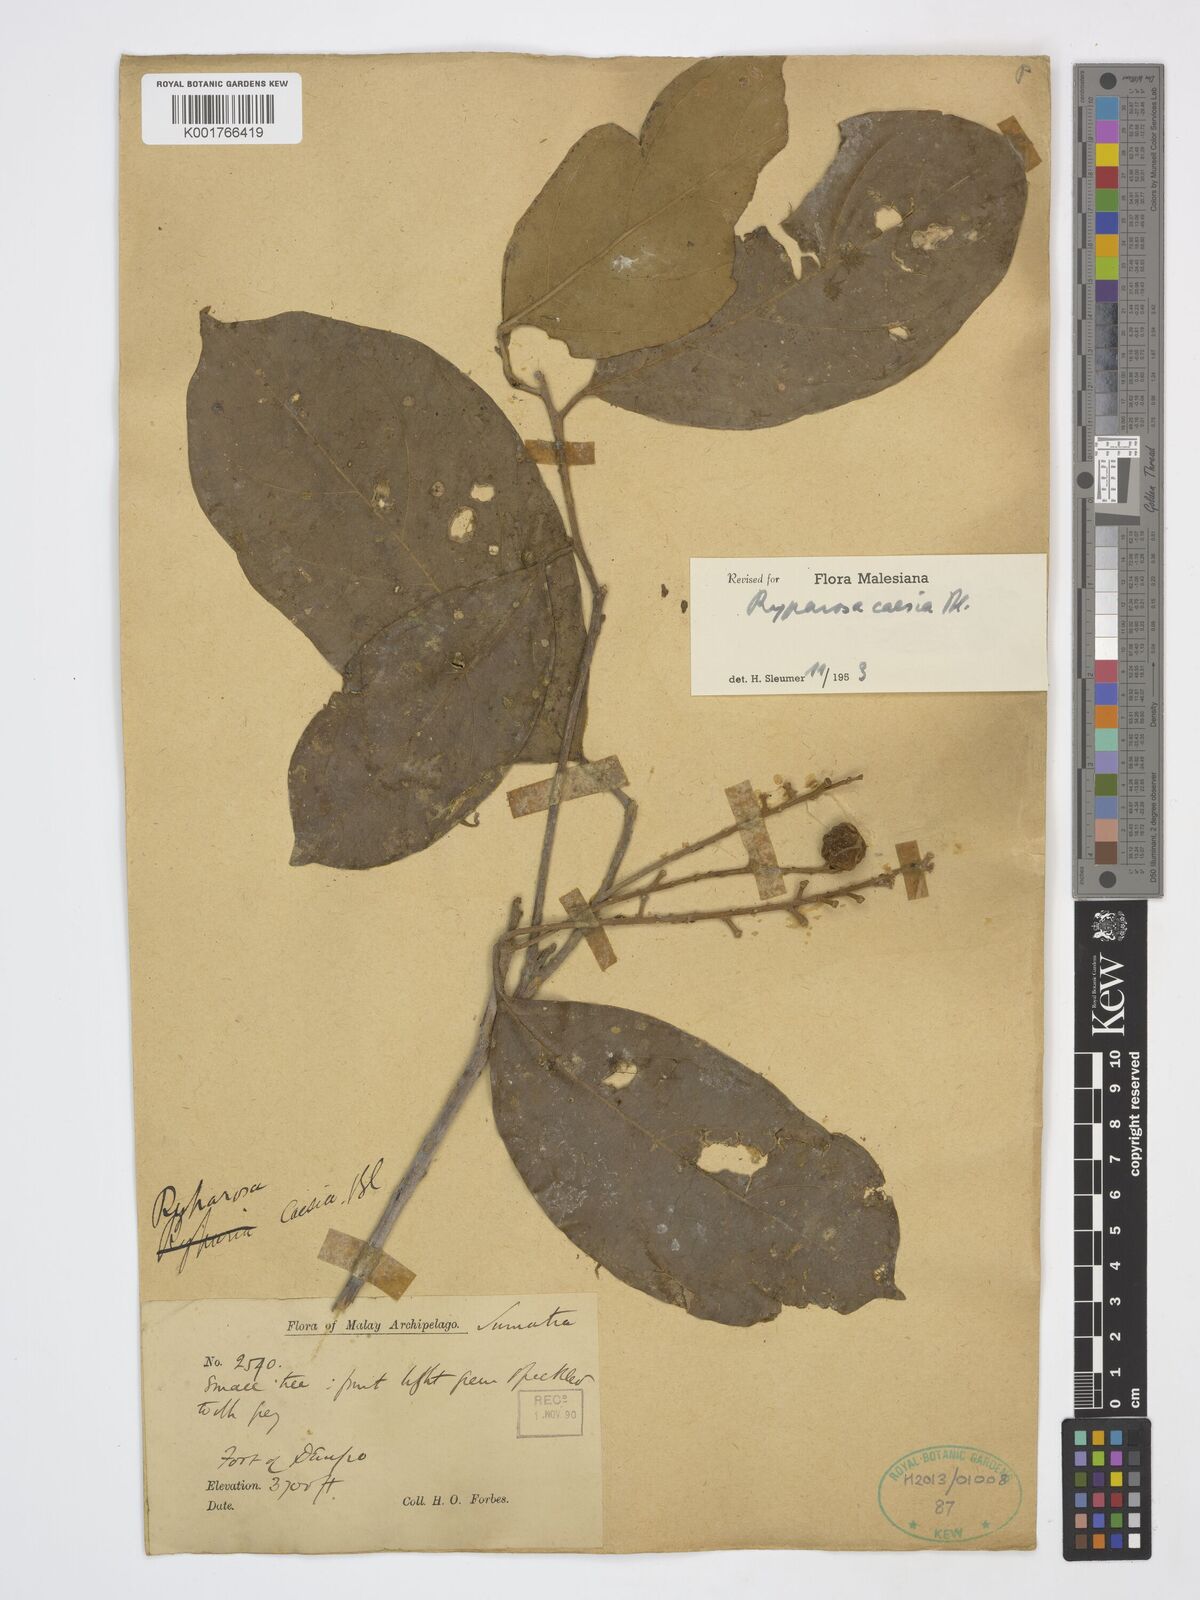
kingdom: Plantae
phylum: Tracheophyta
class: Magnoliopsida
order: Malpighiales
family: Achariaceae
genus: Ryparosa
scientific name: Ryparosa caesia
